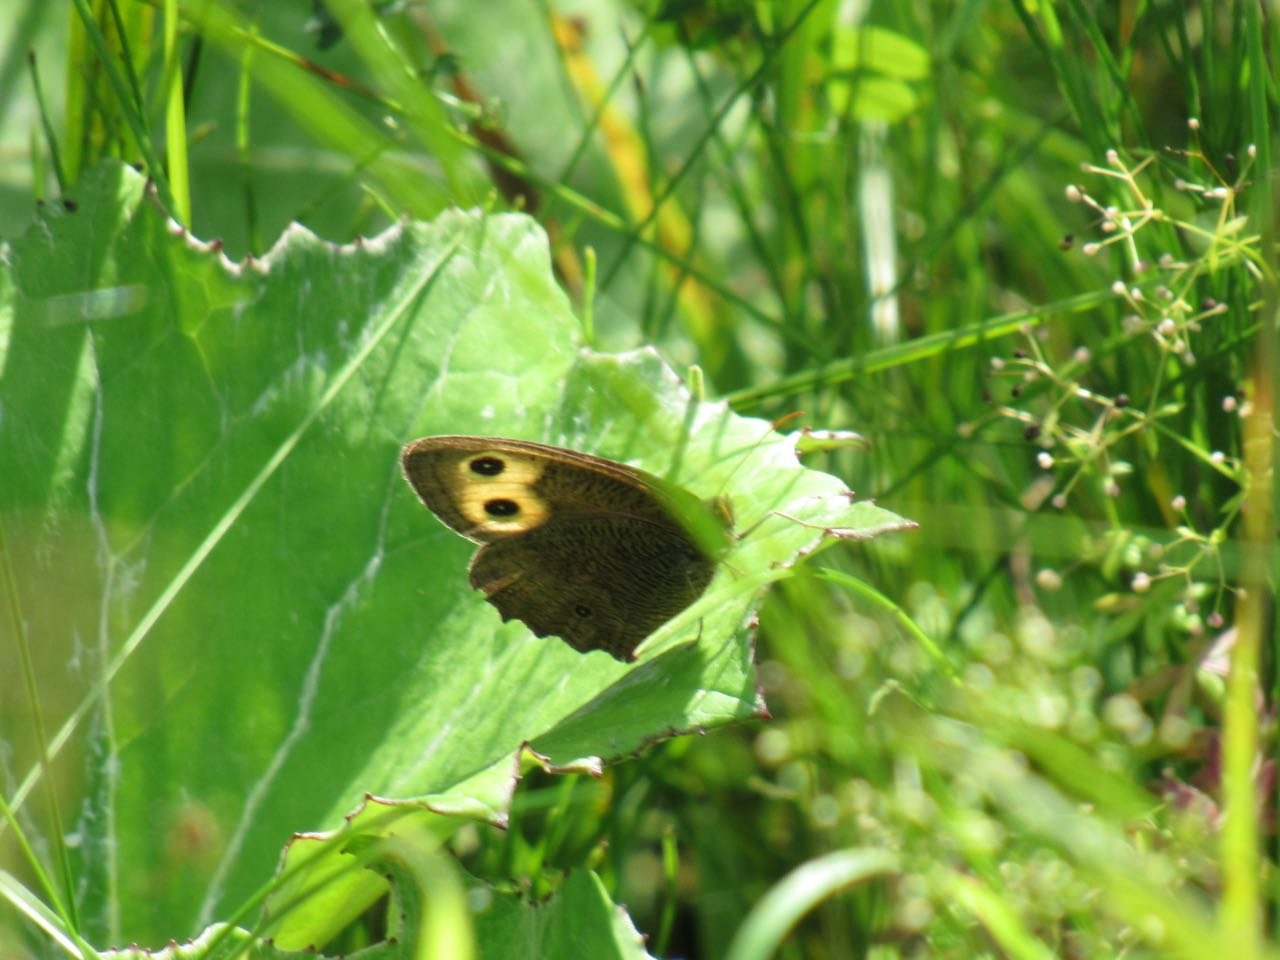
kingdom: Animalia
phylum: Arthropoda
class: Insecta
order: Lepidoptera
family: Nymphalidae
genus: Cercyonis
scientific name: Cercyonis pegala
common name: Common Wood-Nymph
